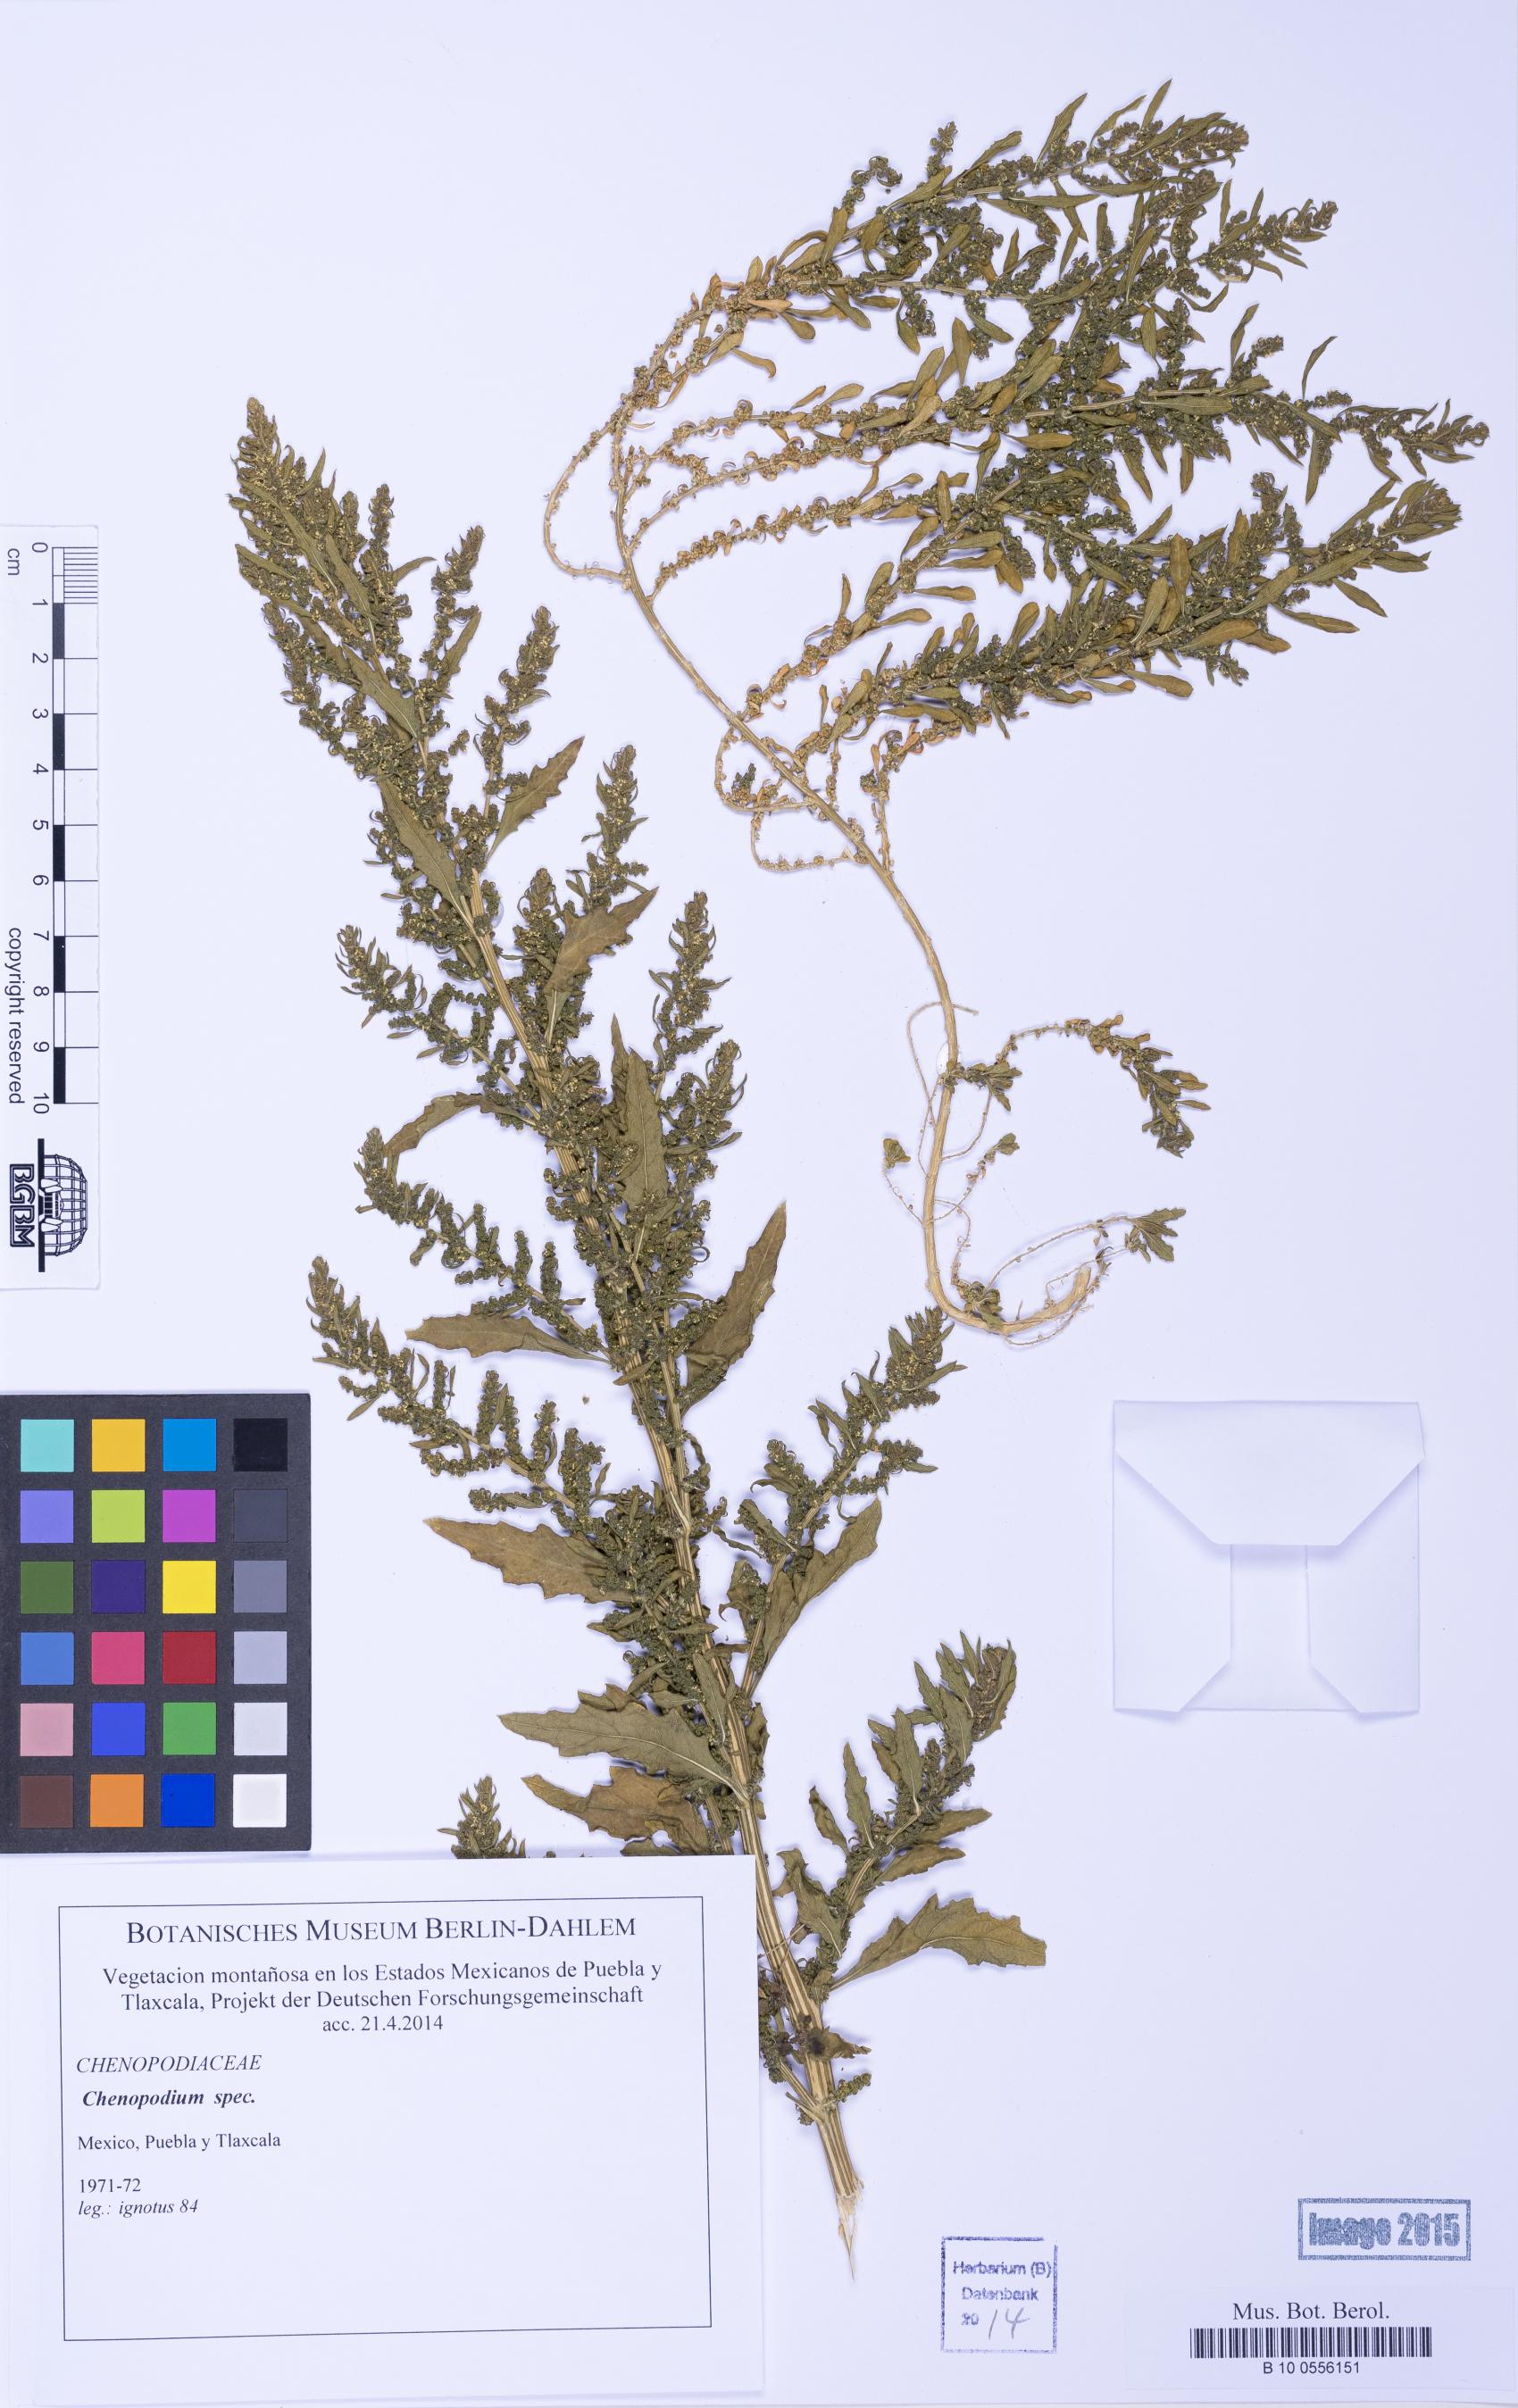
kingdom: Plantae
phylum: Tracheophyta
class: Magnoliopsida
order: Caryophyllales
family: Amaranthaceae
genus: Chenopodium
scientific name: Chenopodium
